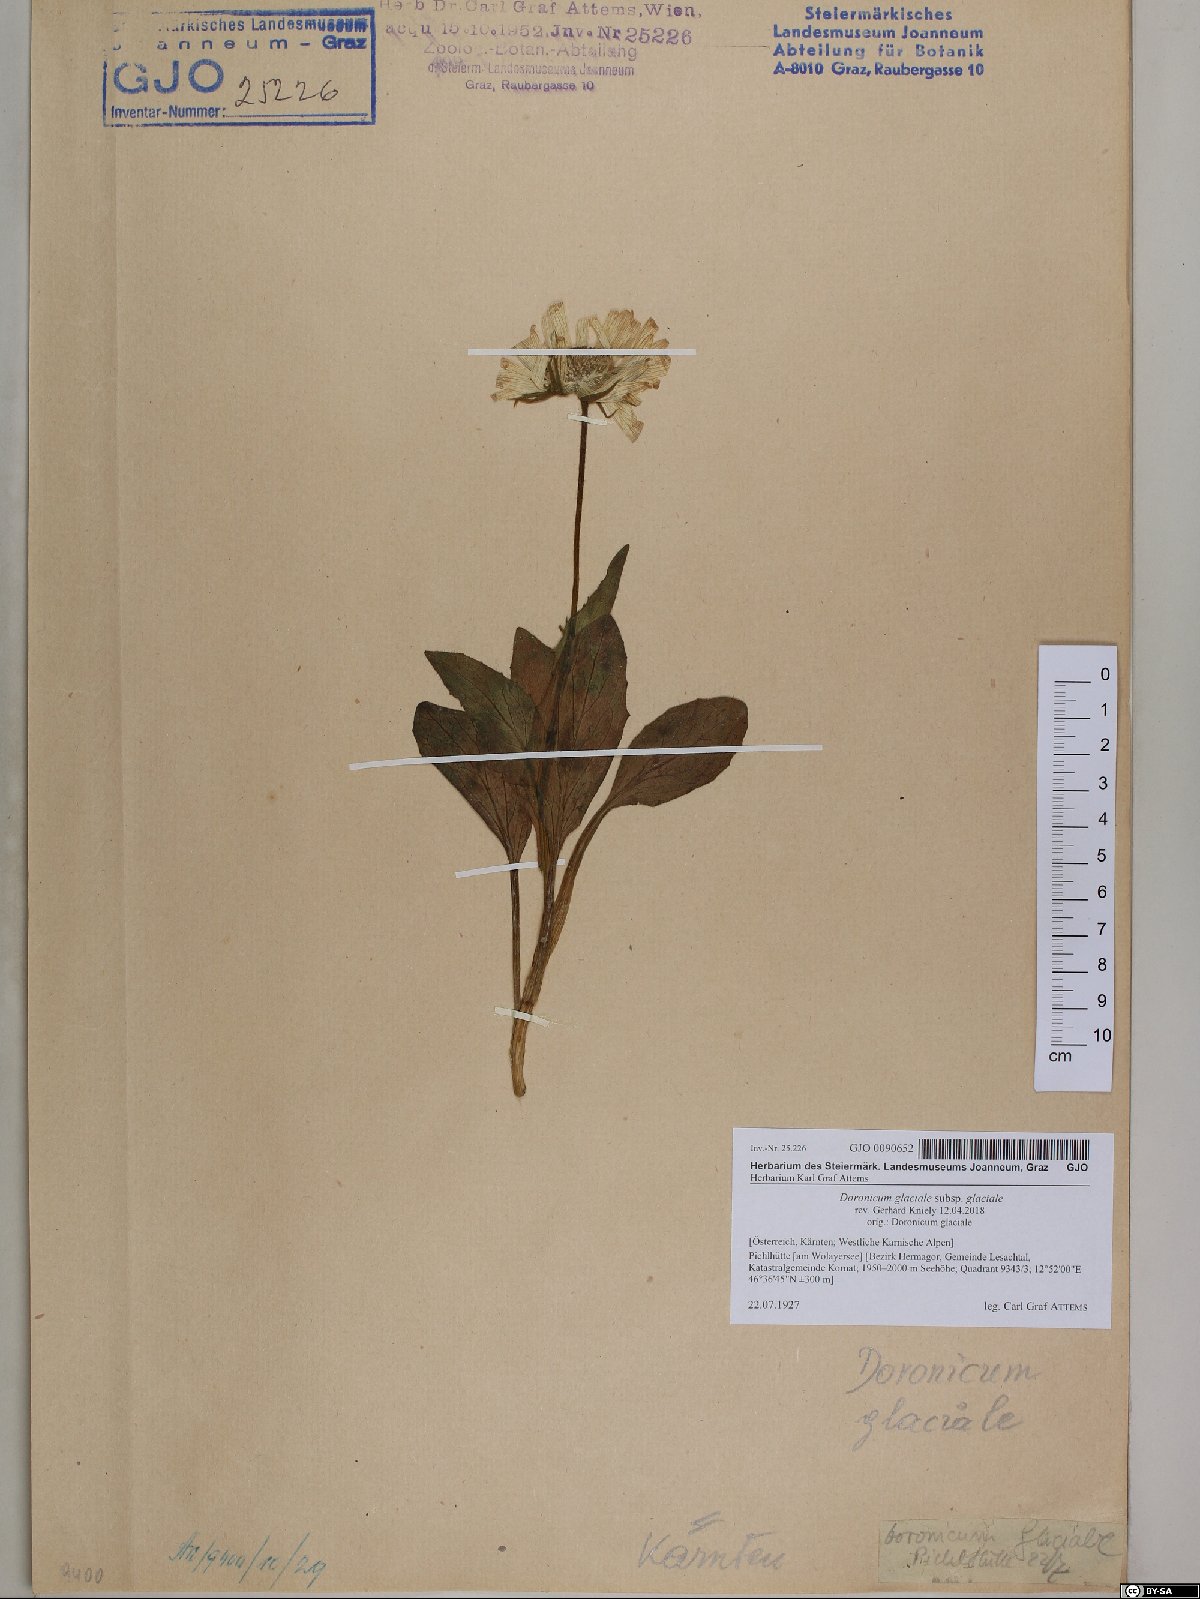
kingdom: Plantae
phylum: Tracheophyta
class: Magnoliopsida
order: Asterales
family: Asteraceae
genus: Doronicum
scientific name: Doronicum glaciale
